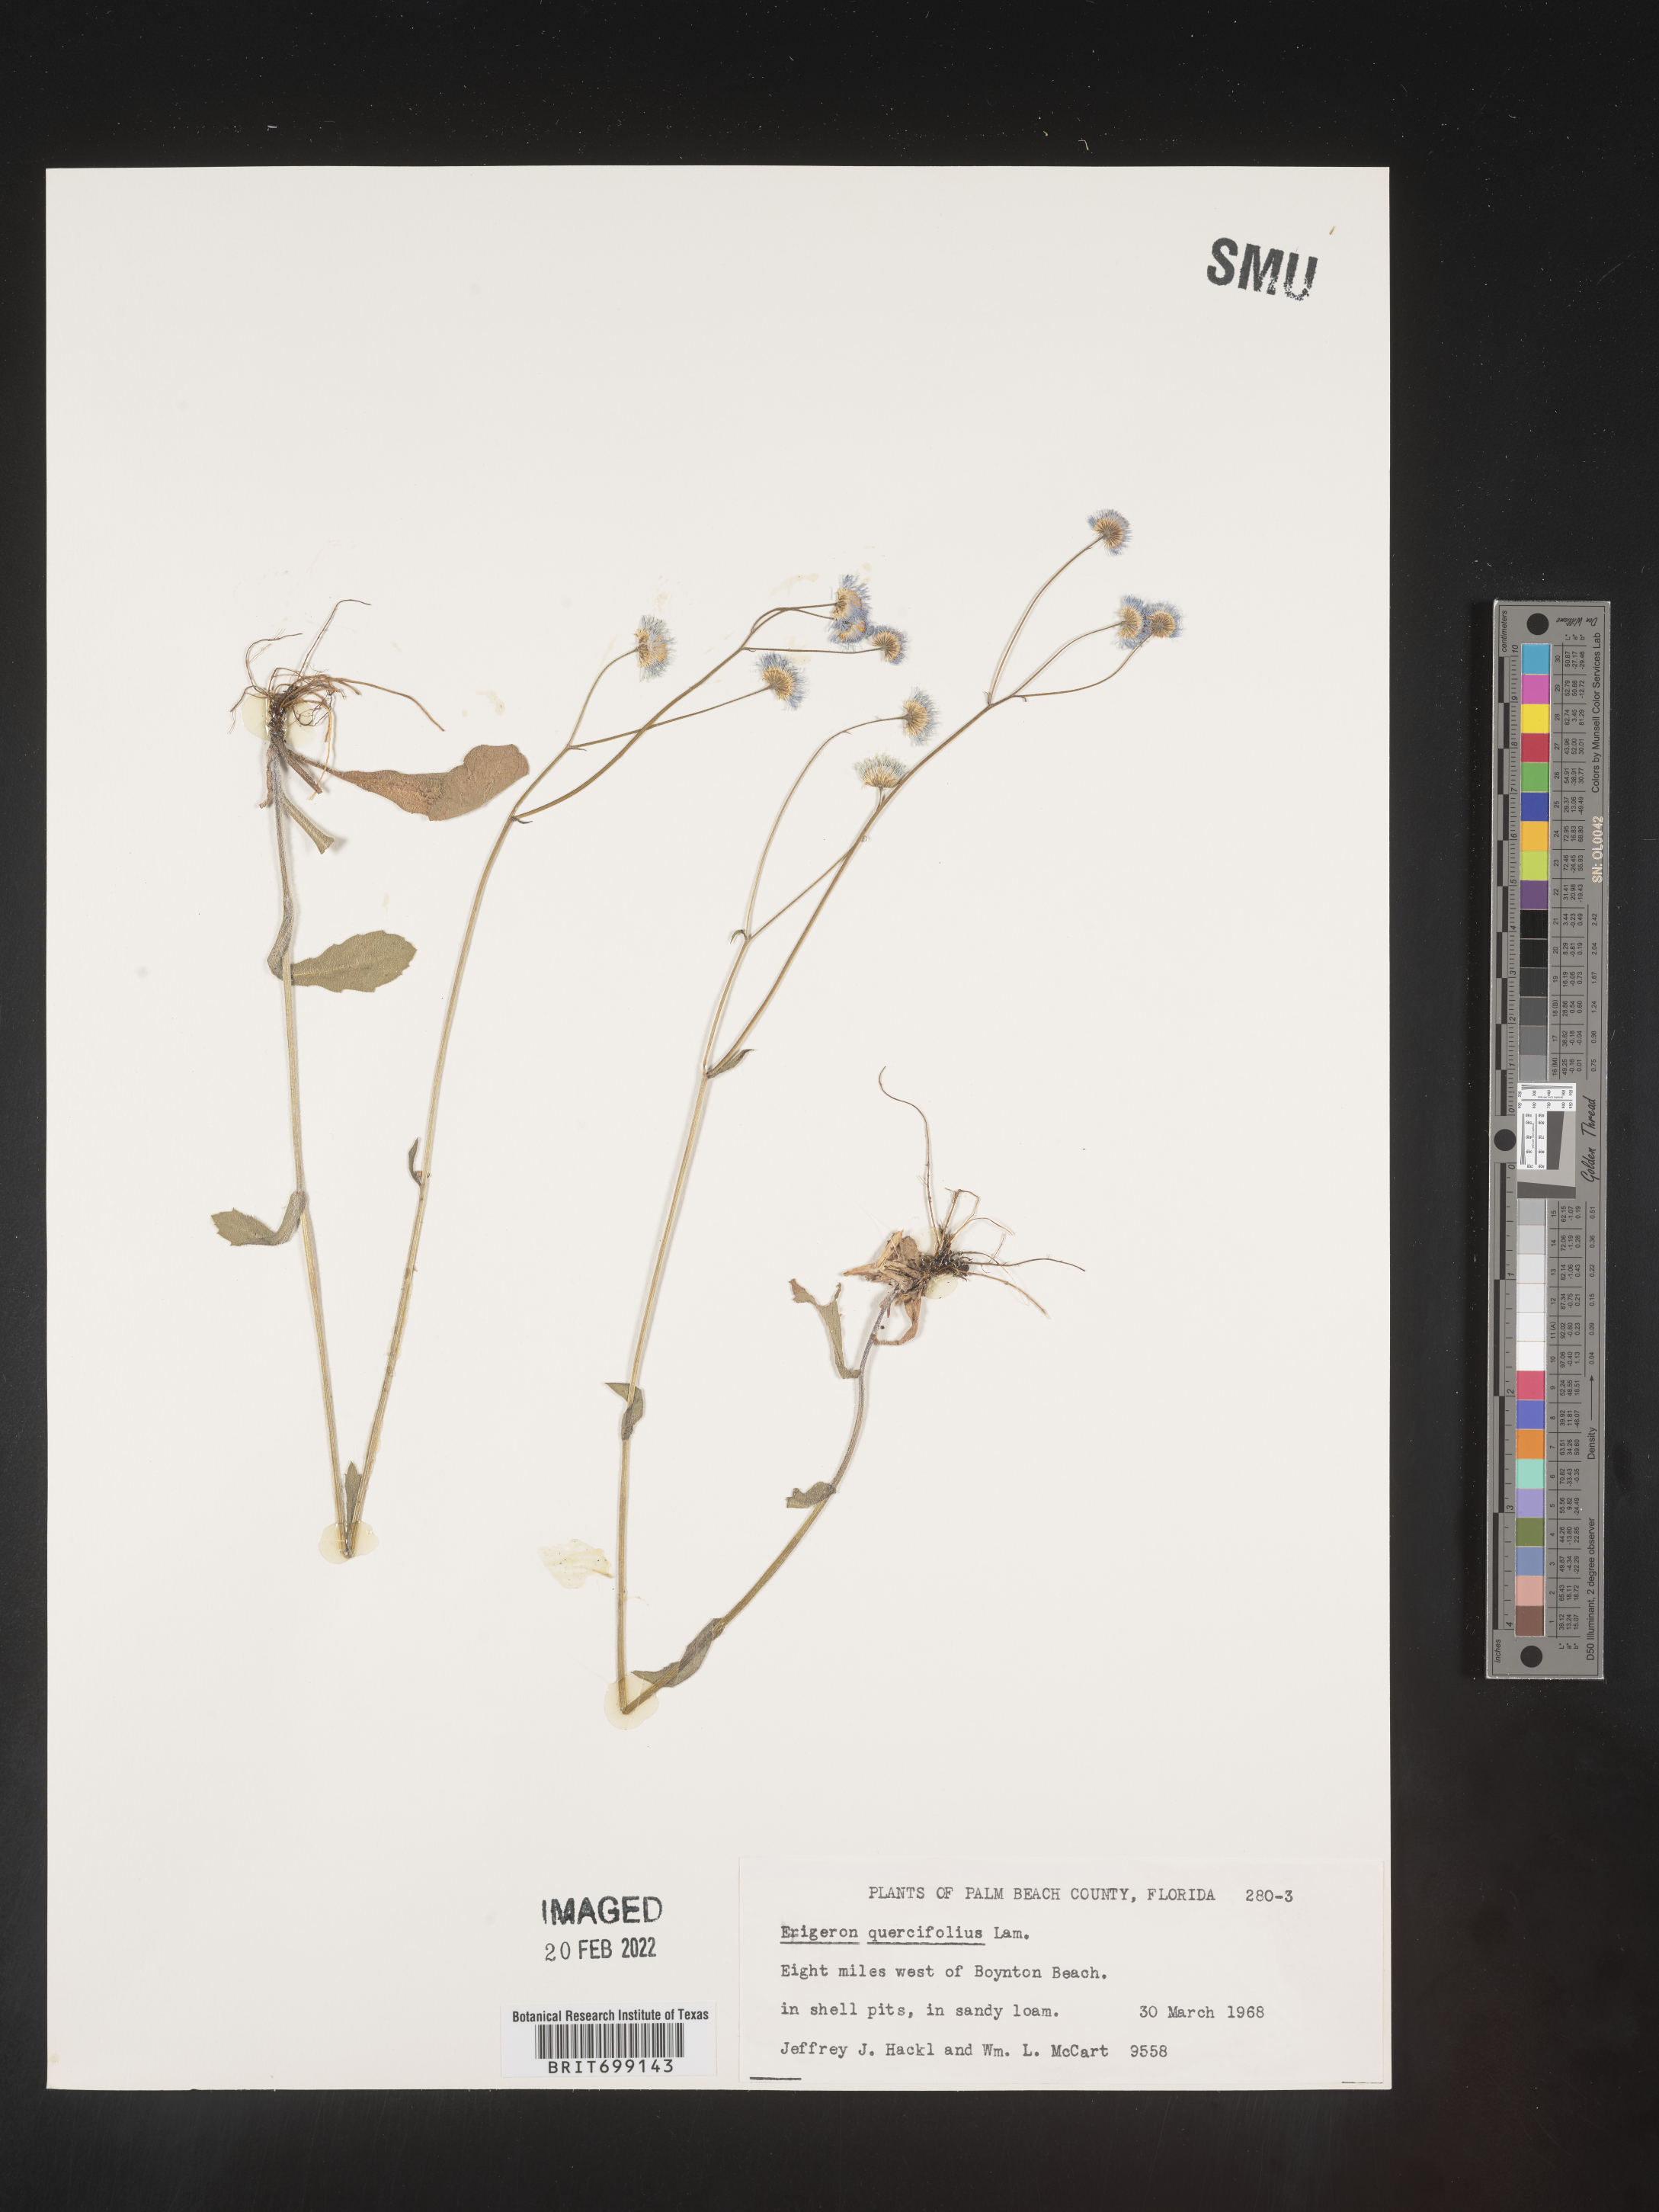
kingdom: Plantae
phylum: Tracheophyta
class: Magnoliopsida
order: Asterales
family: Asteraceae
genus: Erigeron
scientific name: Erigeron quercifolius
